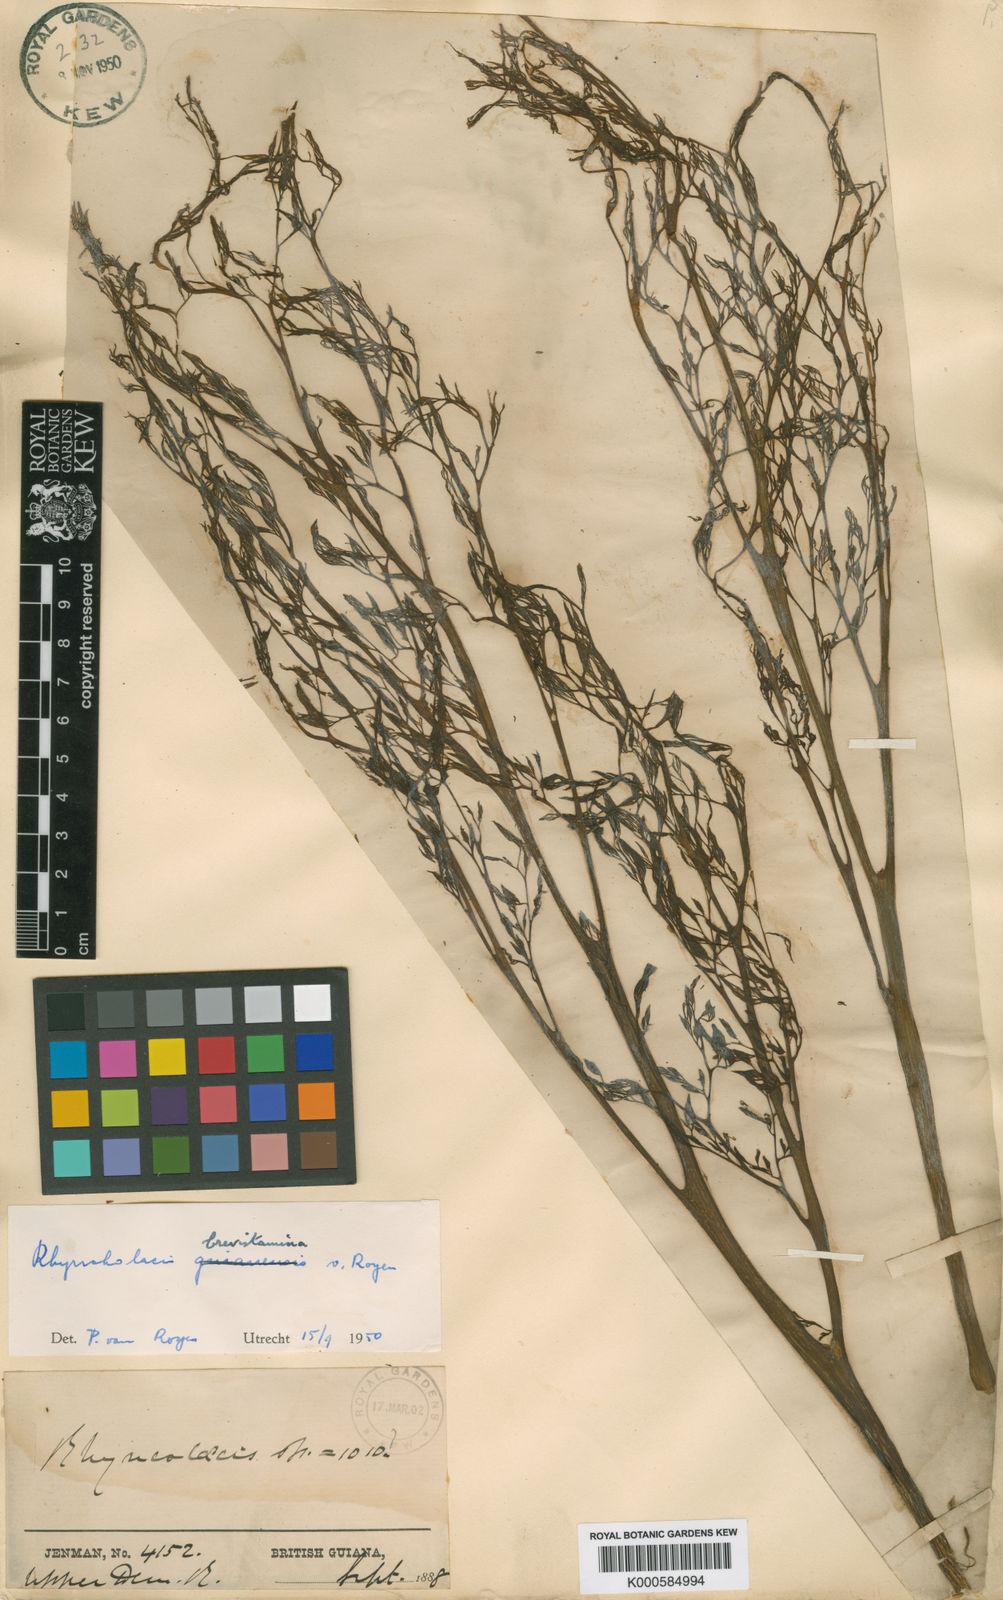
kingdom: Plantae
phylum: Tracheophyta
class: Magnoliopsida
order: Malpighiales
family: Podostemaceae
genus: Rhyncholacis
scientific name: Rhyncholacis brevistamina
